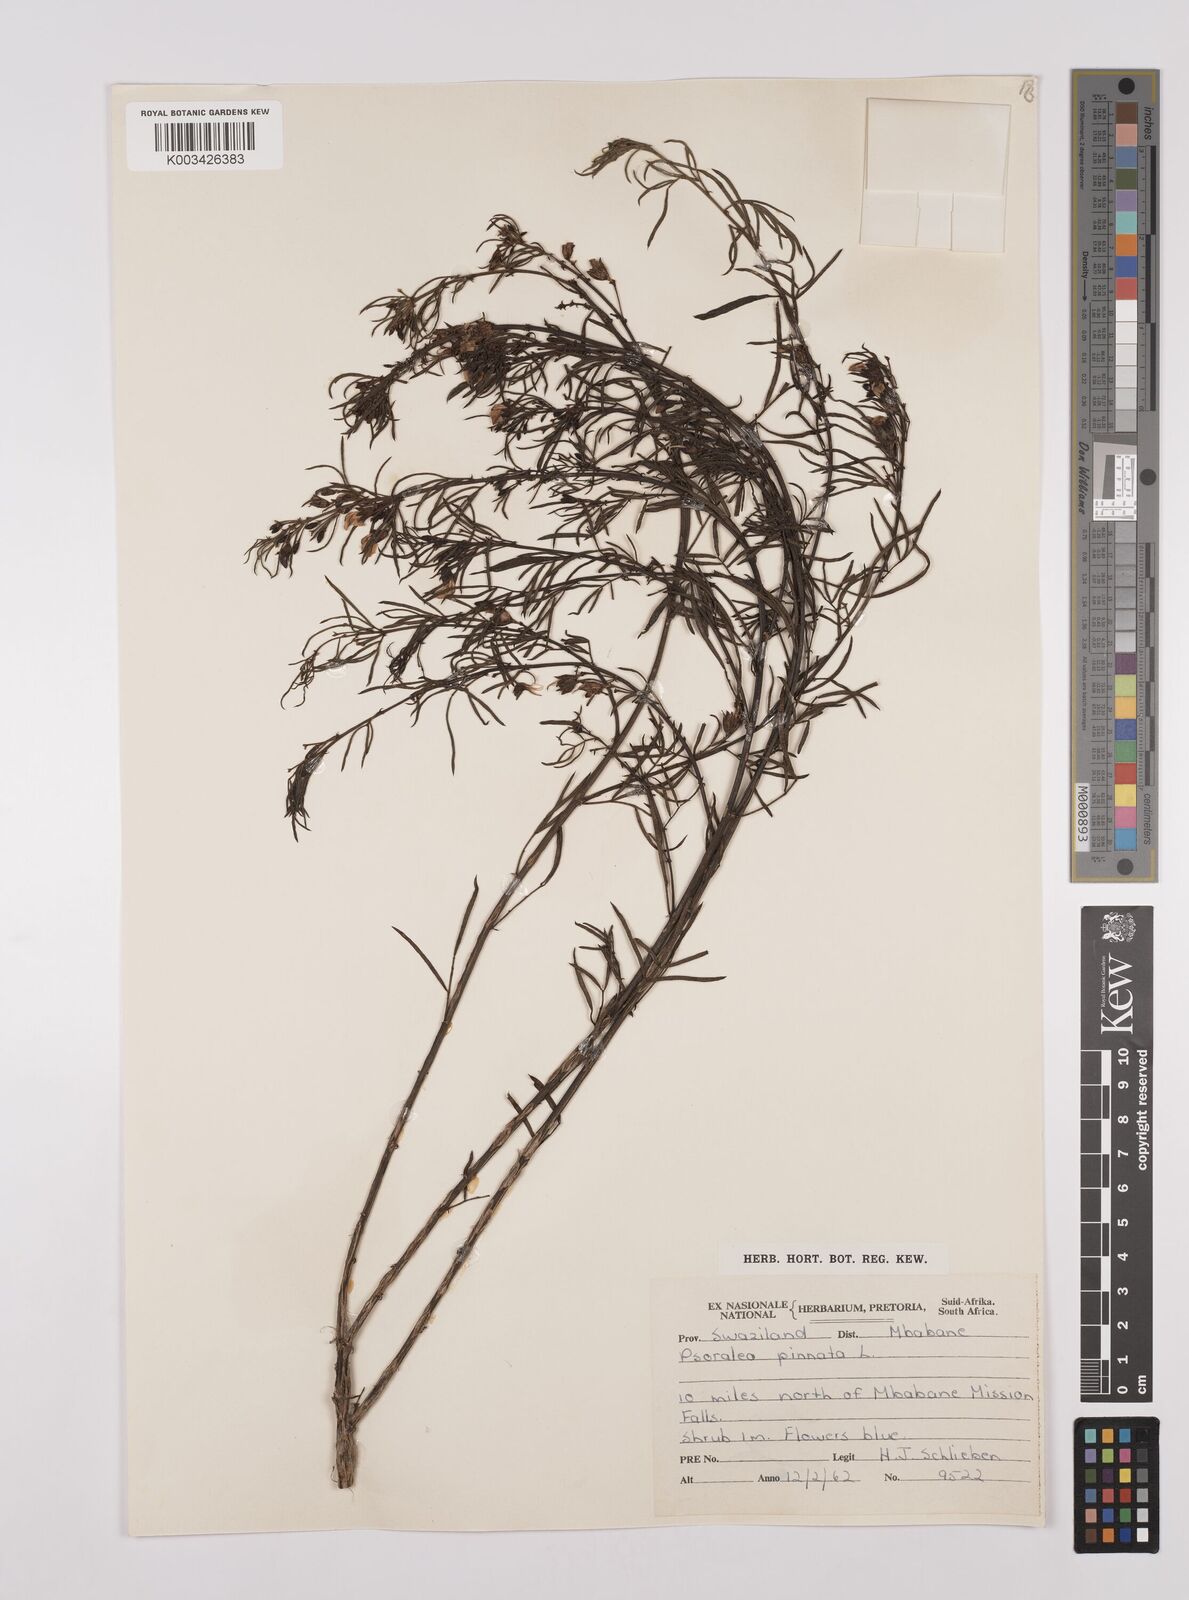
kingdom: Plantae
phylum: Tracheophyta
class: Magnoliopsida
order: Fabales
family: Fabaceae
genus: Psoralea
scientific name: Psoralea rhizotoma
